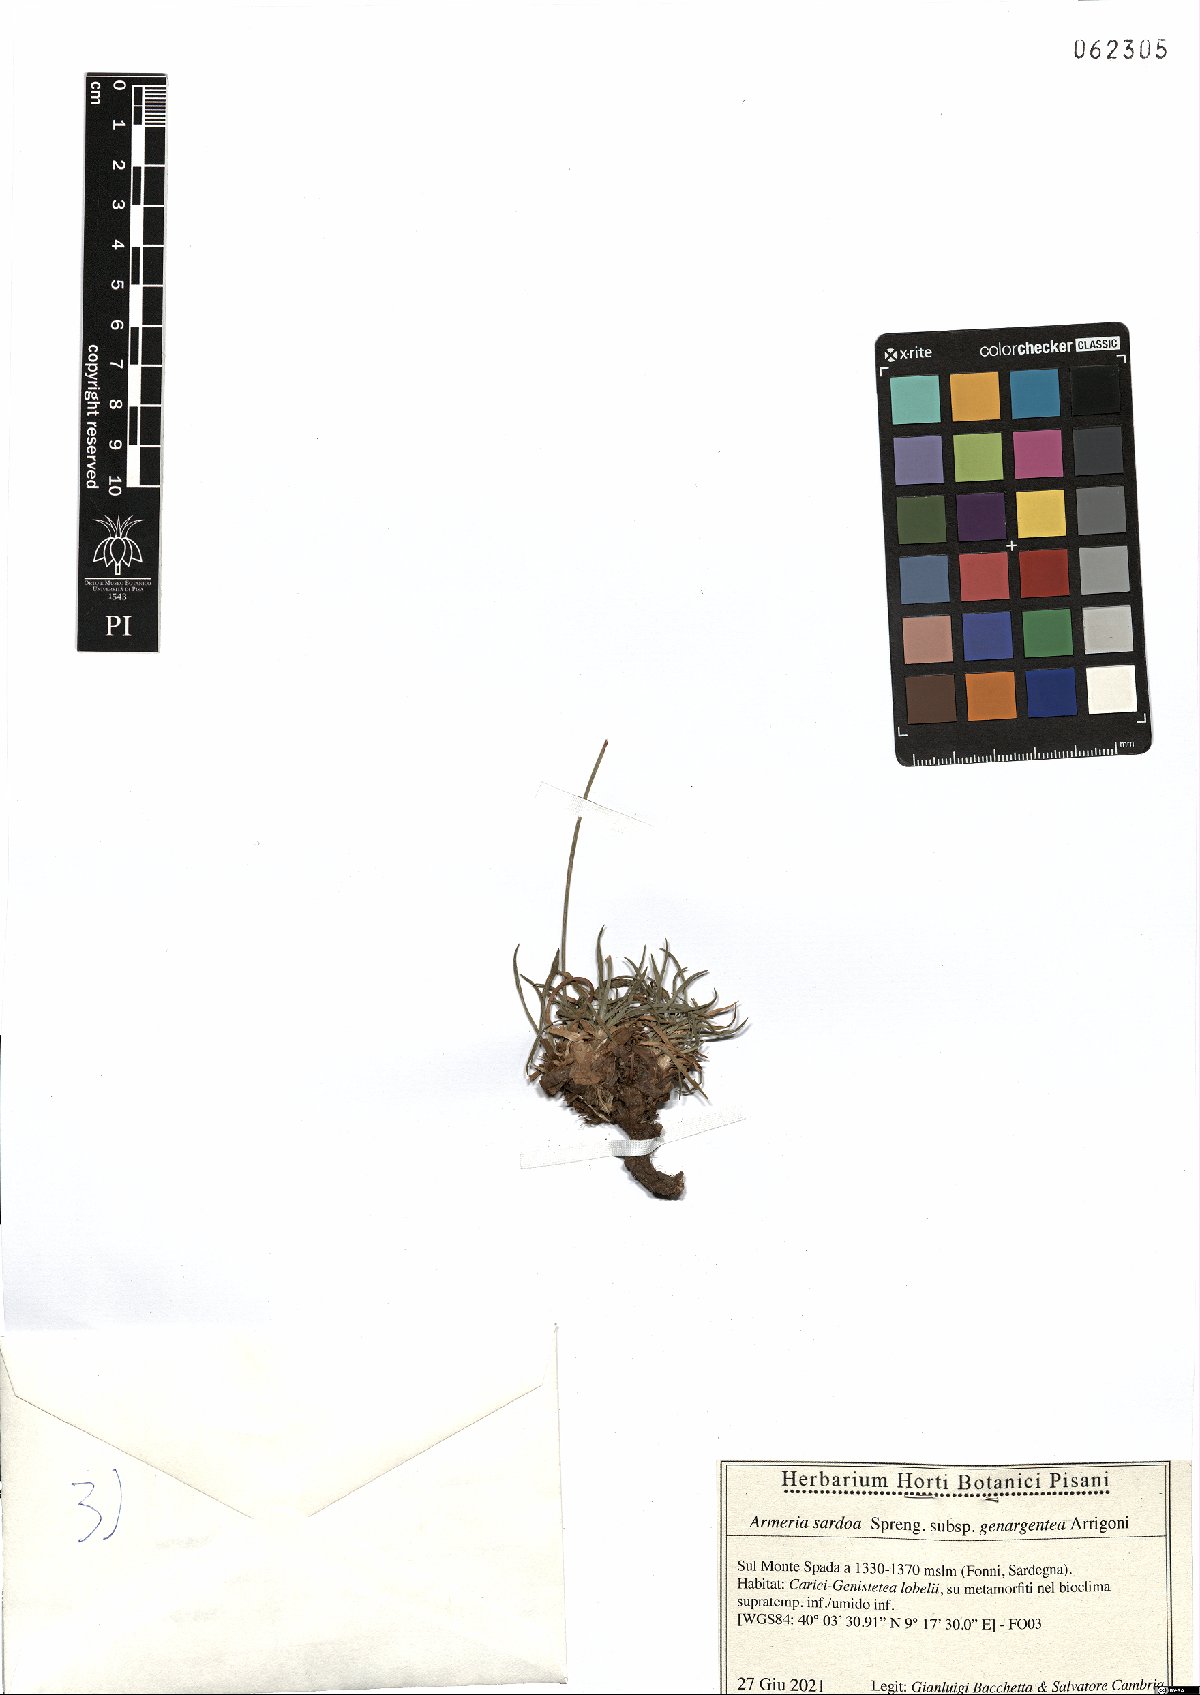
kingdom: Plantae
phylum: Tracheophyta
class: Magnoliopsida
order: Caryophyllales
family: Plumbaginaceae
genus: Armeria
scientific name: Armeria sardoa
